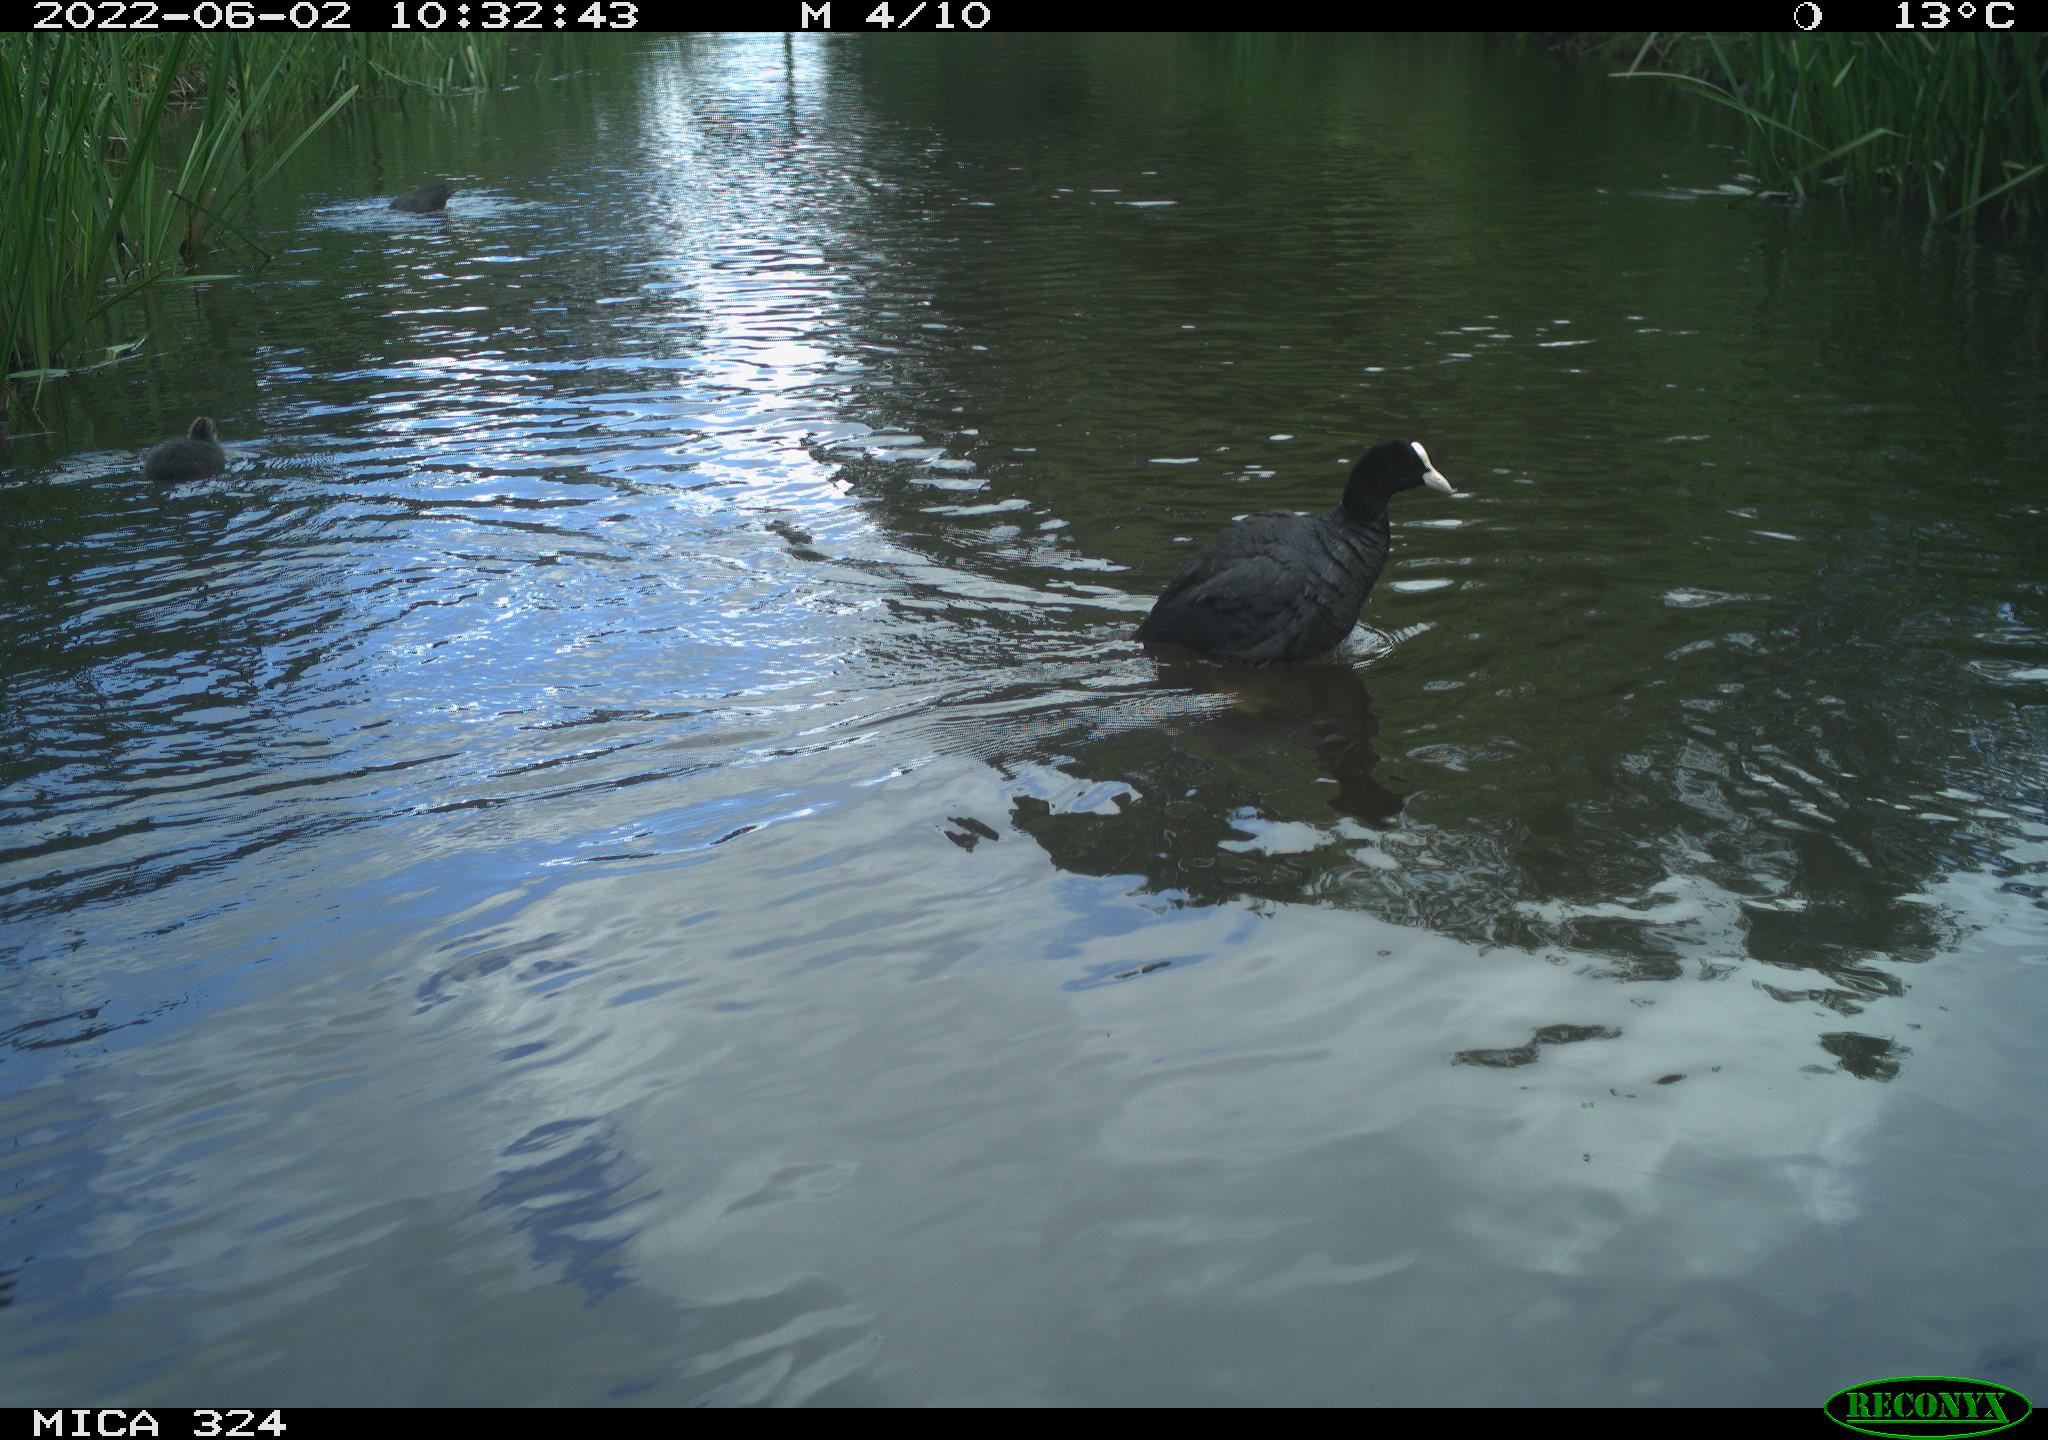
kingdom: Animalia
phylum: Chordata
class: Aves
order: Gruiformes
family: Rallidae
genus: Fulica
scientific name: Fulica atra
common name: Eurasian coot
